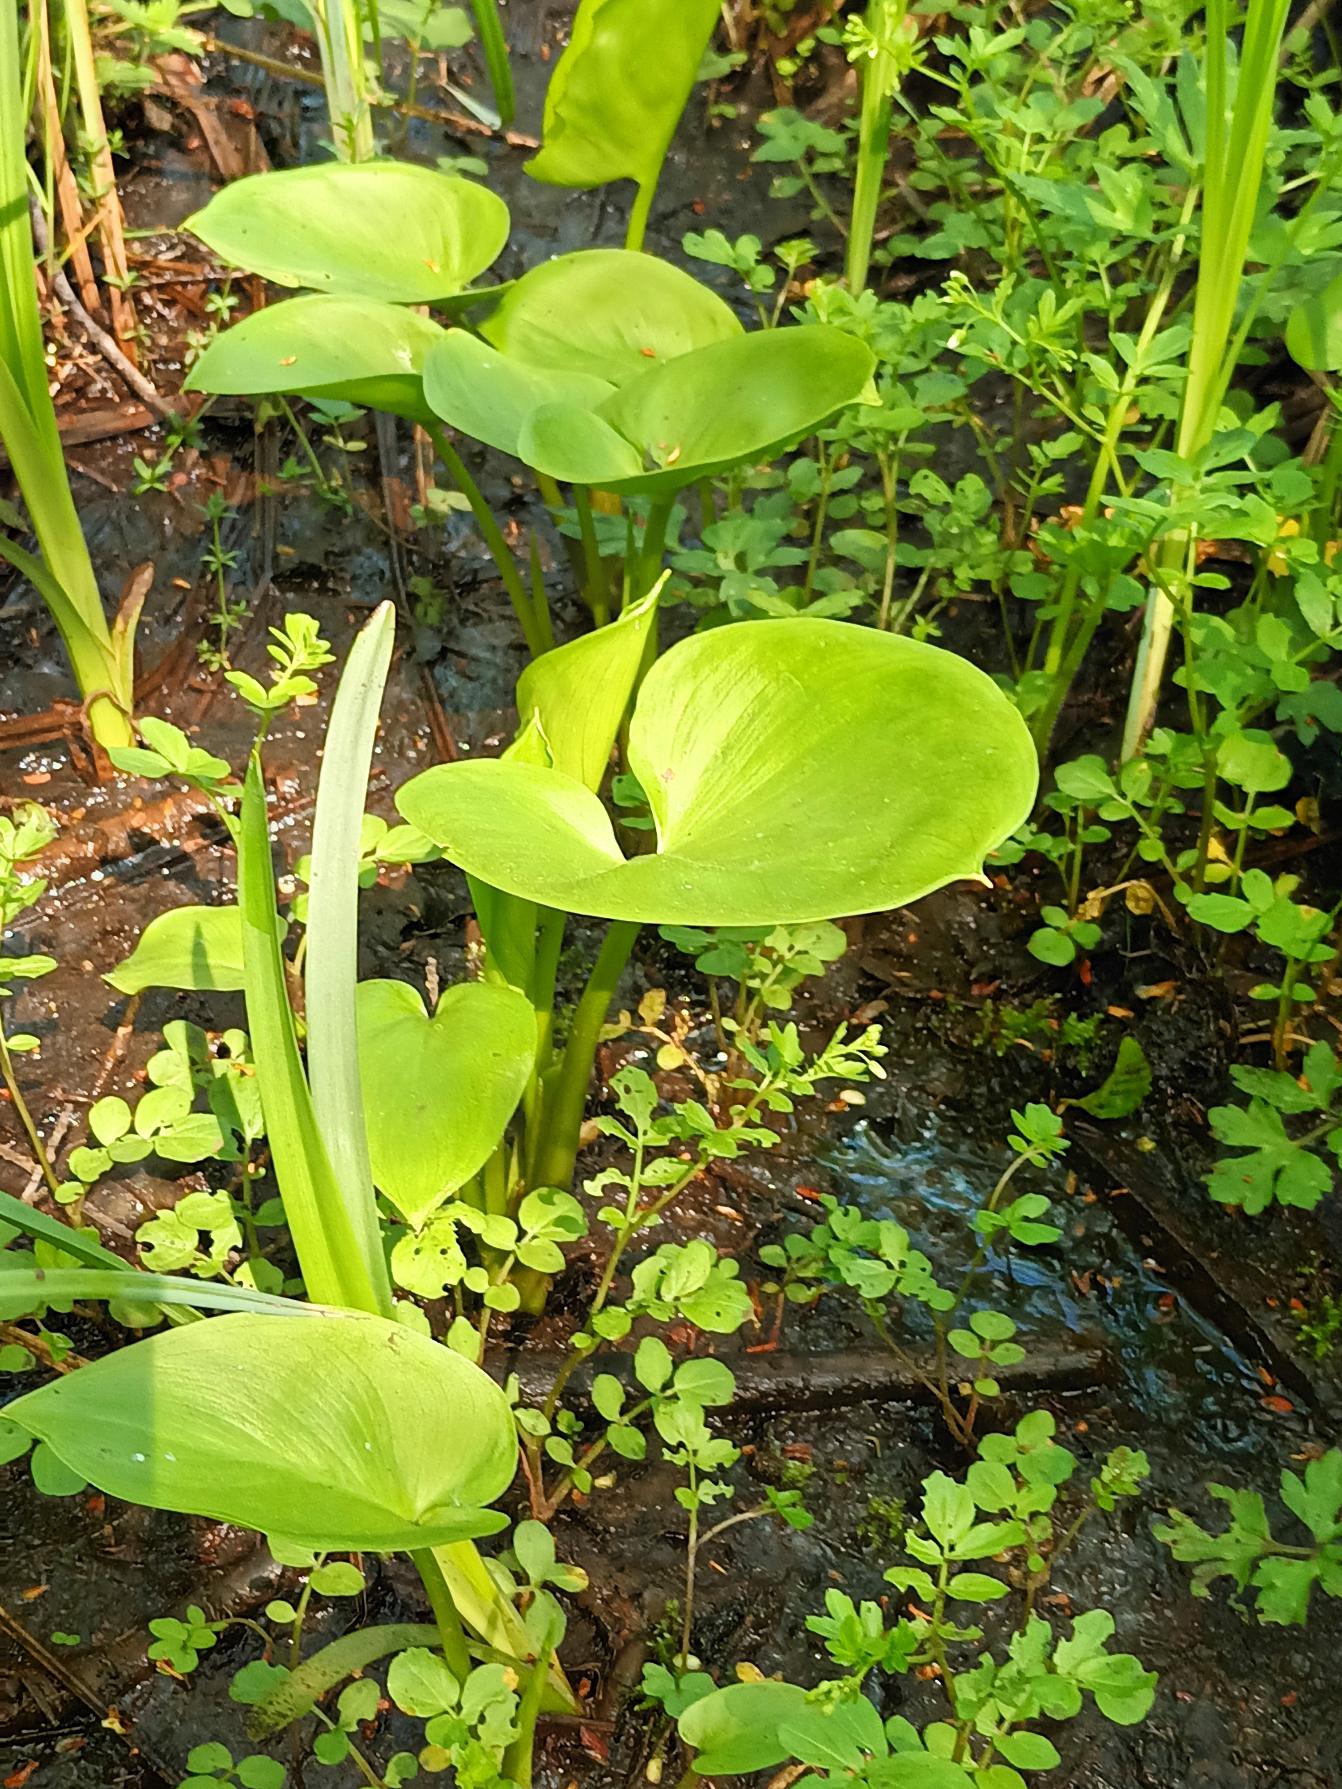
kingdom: Plantae
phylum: Tracheophyta
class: Liliopsida
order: Alismatales
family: Araceae
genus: Calla
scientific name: Calla palustris
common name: Kærmysse
